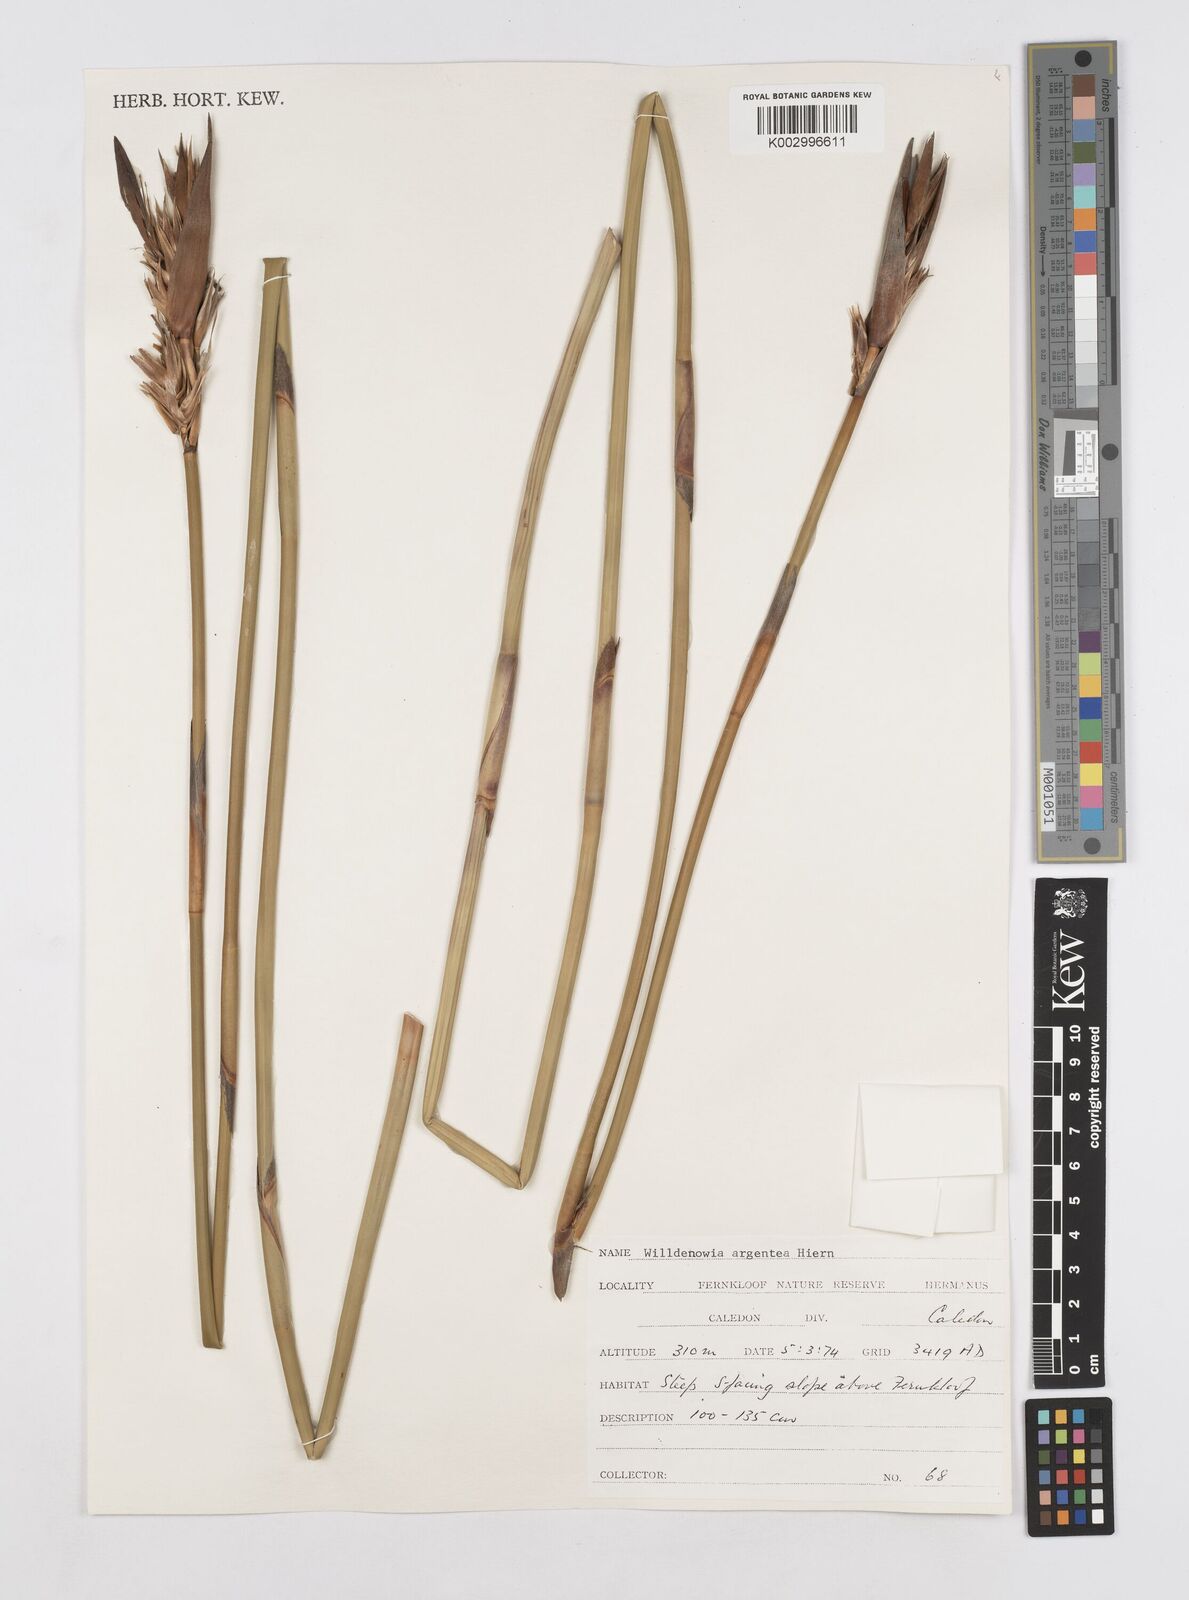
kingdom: Plantae
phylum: Tracheophyta
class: Liliopsida
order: Poales
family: Restionaceae
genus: Ceratocaryum
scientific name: Ceratocaryum argenteum
